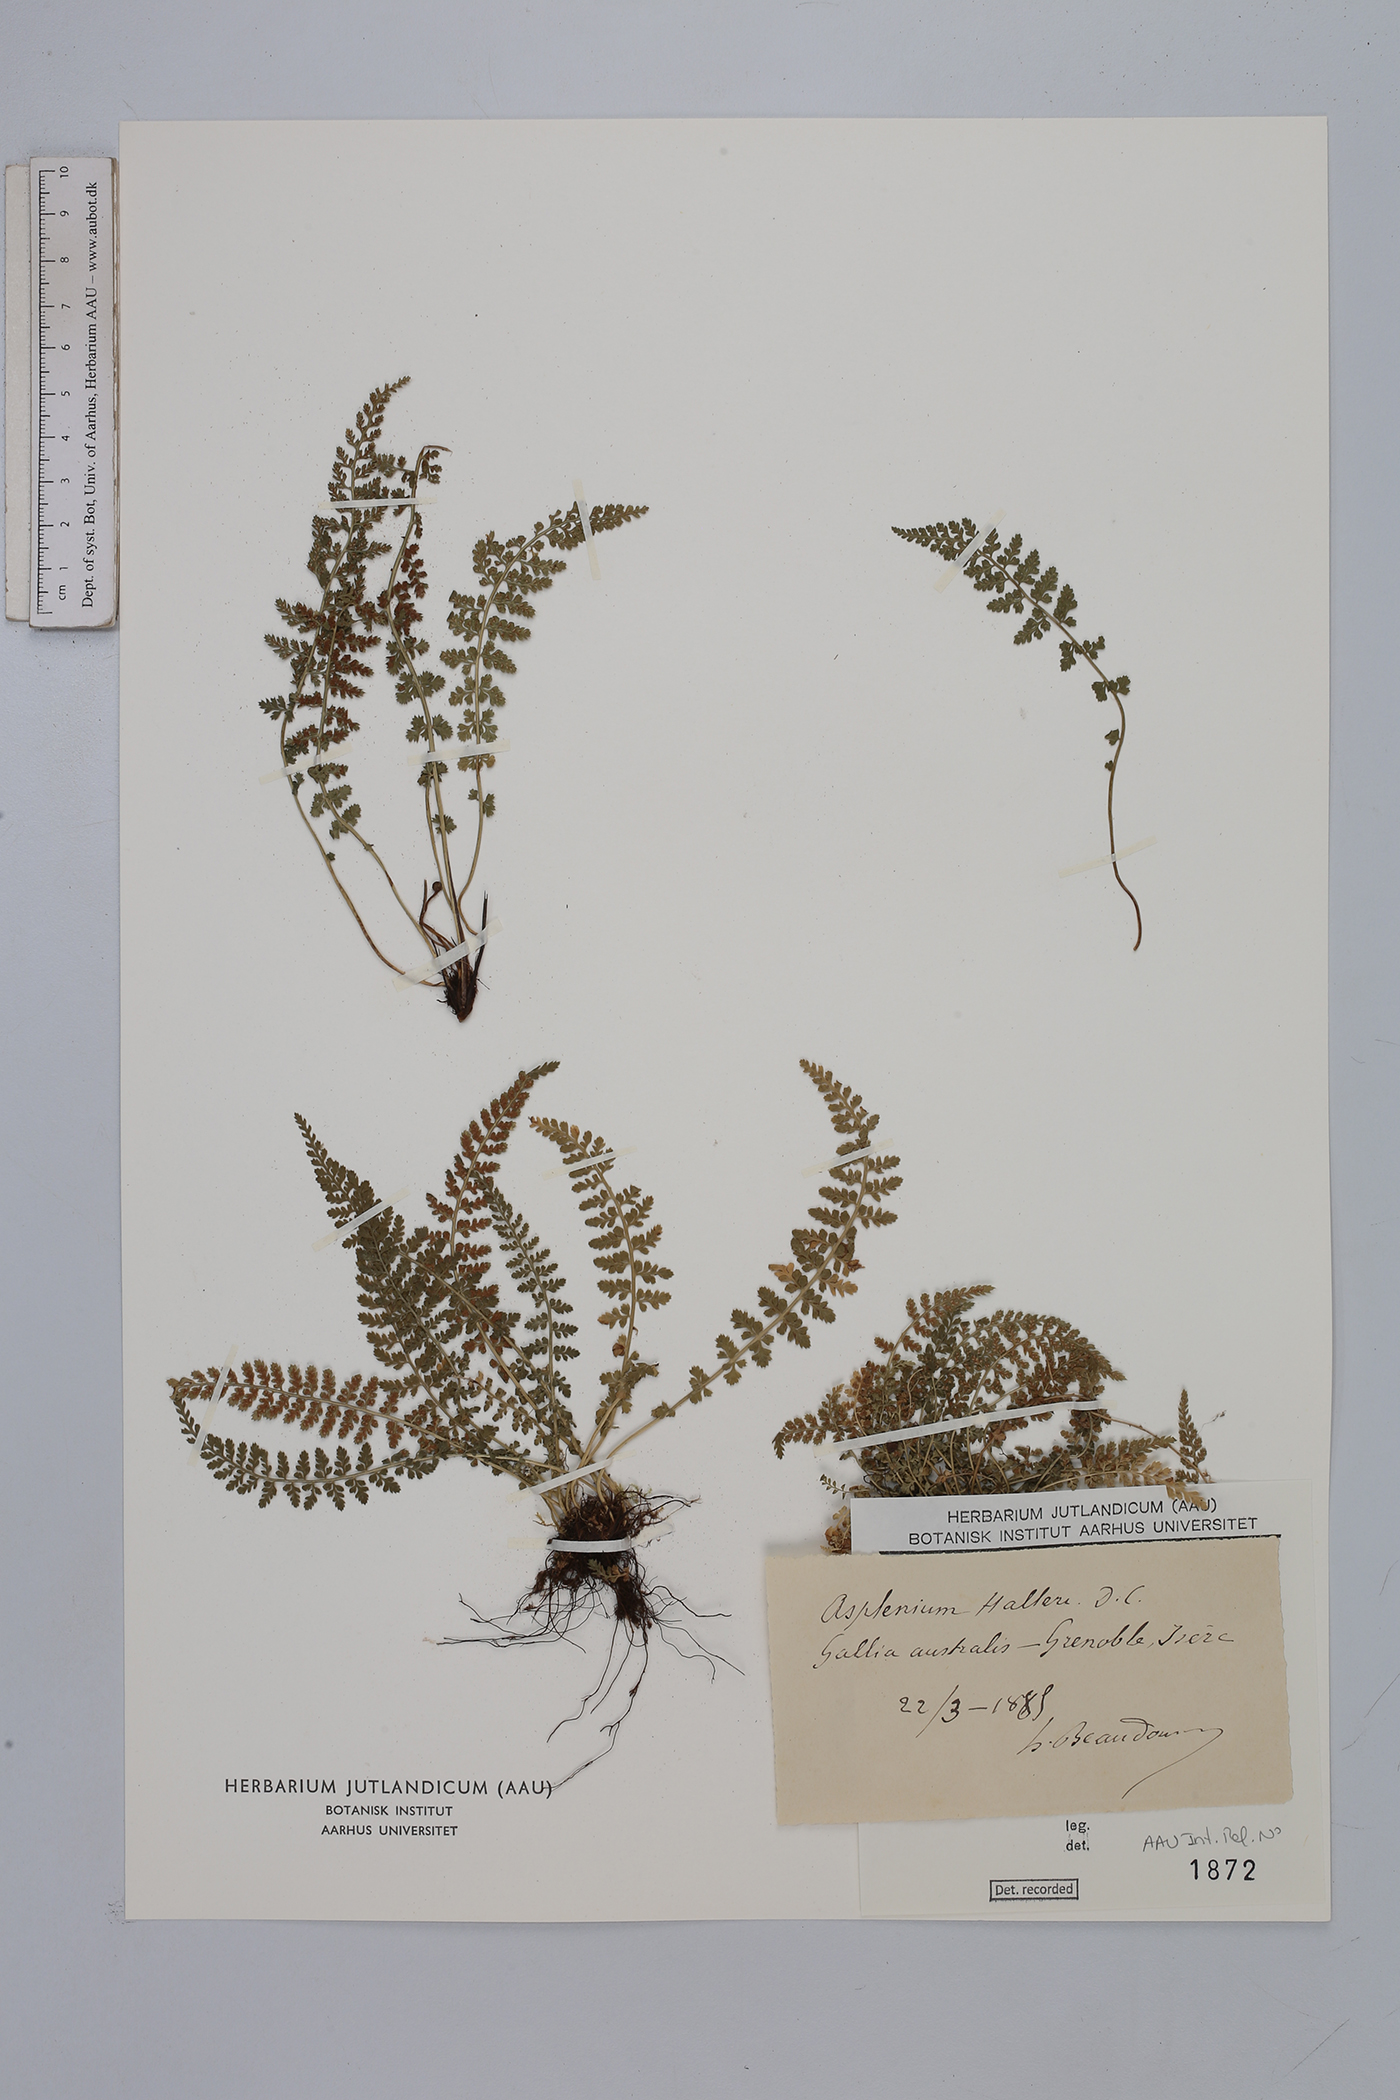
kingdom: Plantae
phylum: Tracheophyta
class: Polypodiopsida
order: Polypodiales
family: Aspleniaceae
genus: Asplenium
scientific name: Asplenium fontanum
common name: Fountain spleenwort
